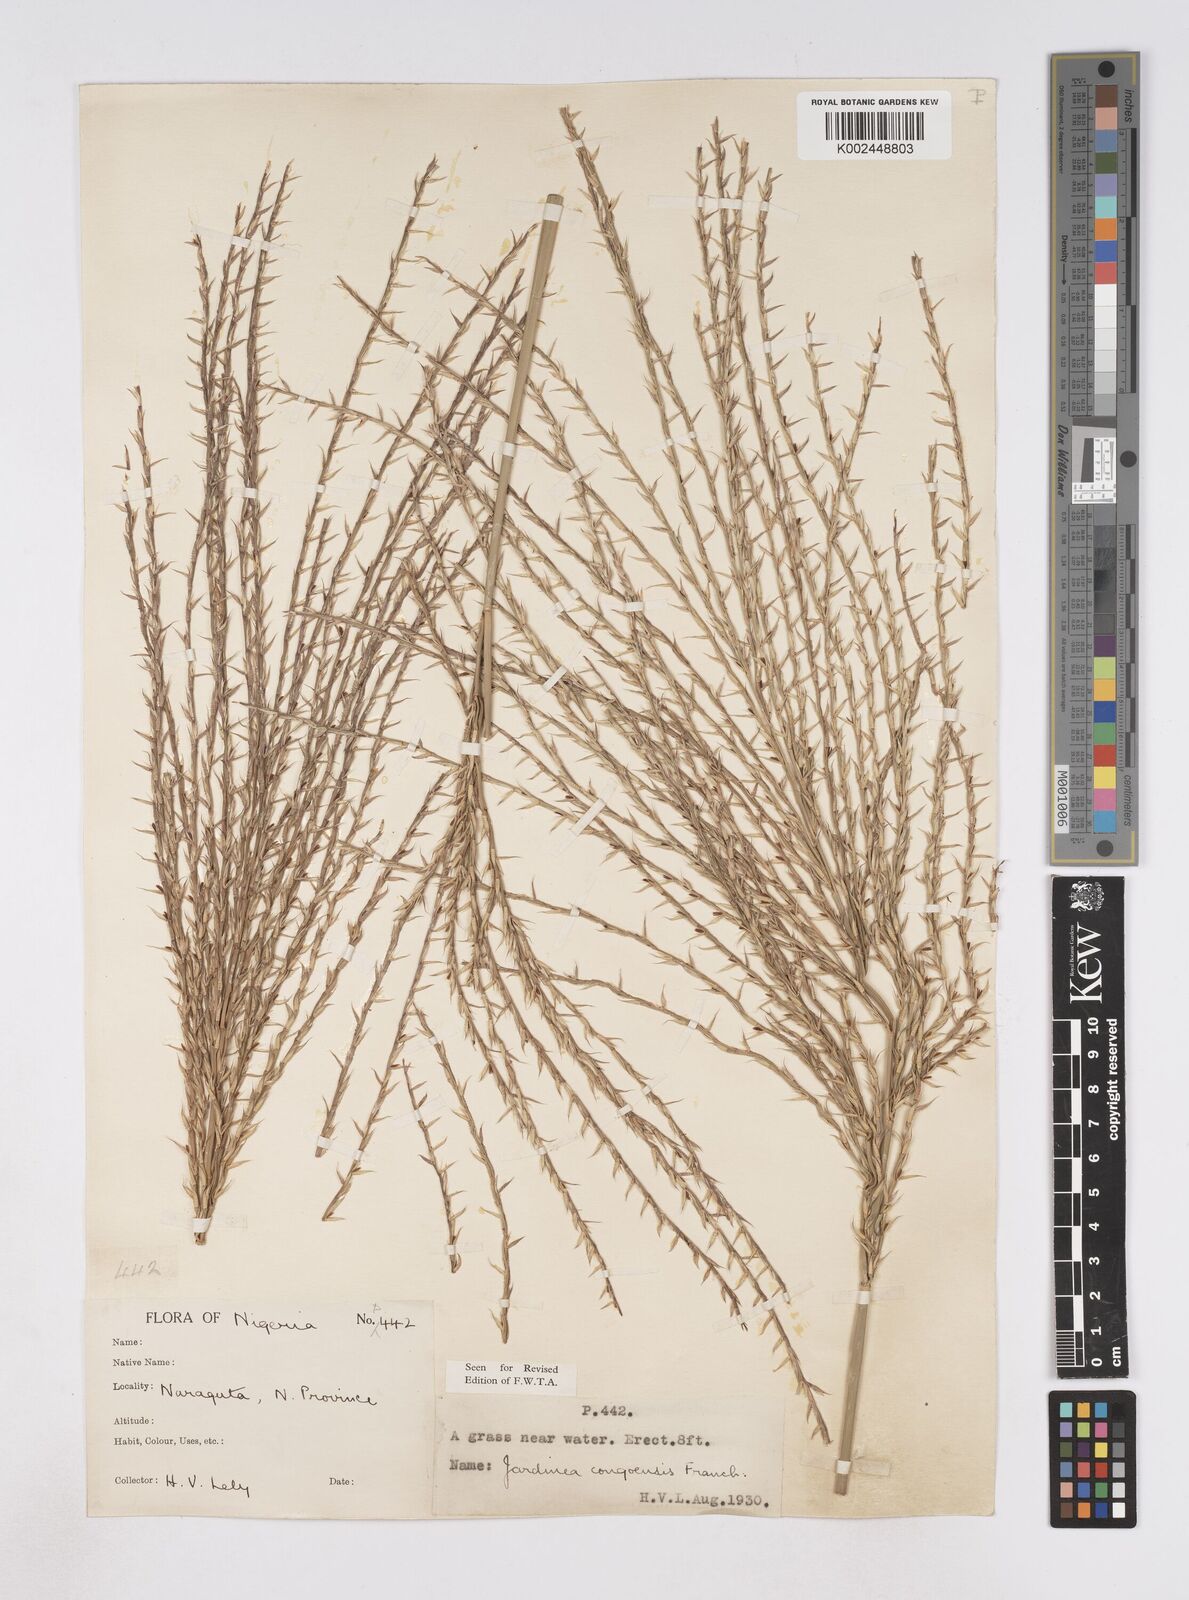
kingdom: Plantae
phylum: Tracheophyta
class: Liliopsida
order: Poales
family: Poaceae
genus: Phacelurus
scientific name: Phacelurus gabonensis
